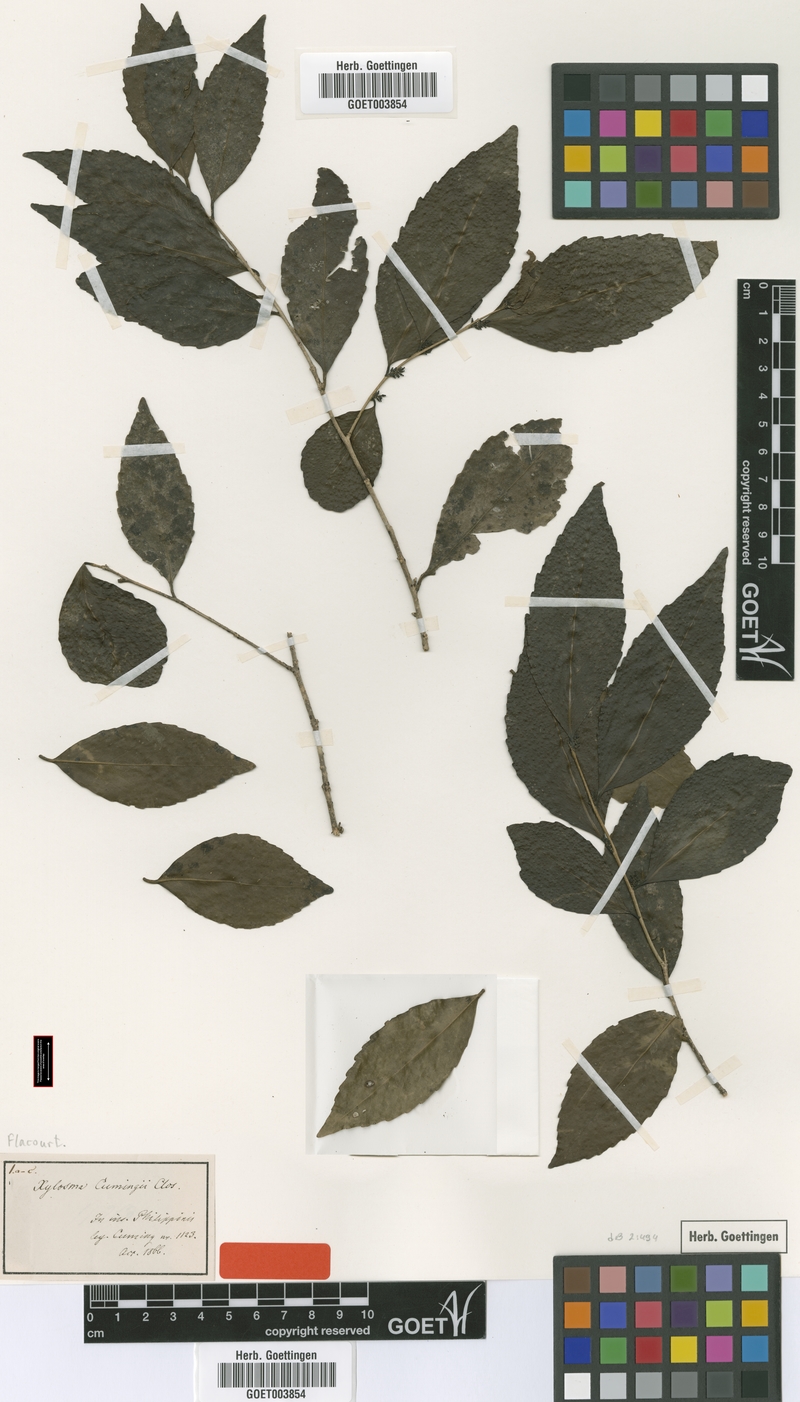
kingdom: Plantae
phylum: Tracheophyta
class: Magnoliopsida
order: Malpighiales
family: Salicaceae
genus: Xylosma
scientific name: Xylosma luzonensis
